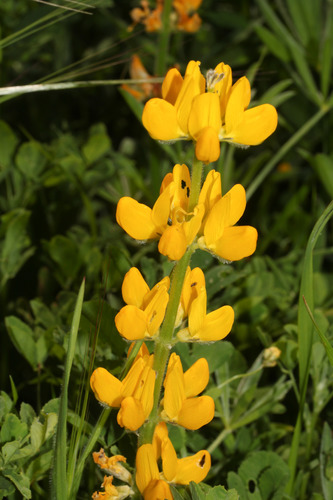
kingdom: Plantae
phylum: Tracheophyta
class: Magnoliopsida
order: Fabales
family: Fabaceae
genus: Lupinus
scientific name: Lupinus luteus
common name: European yellow lupine
